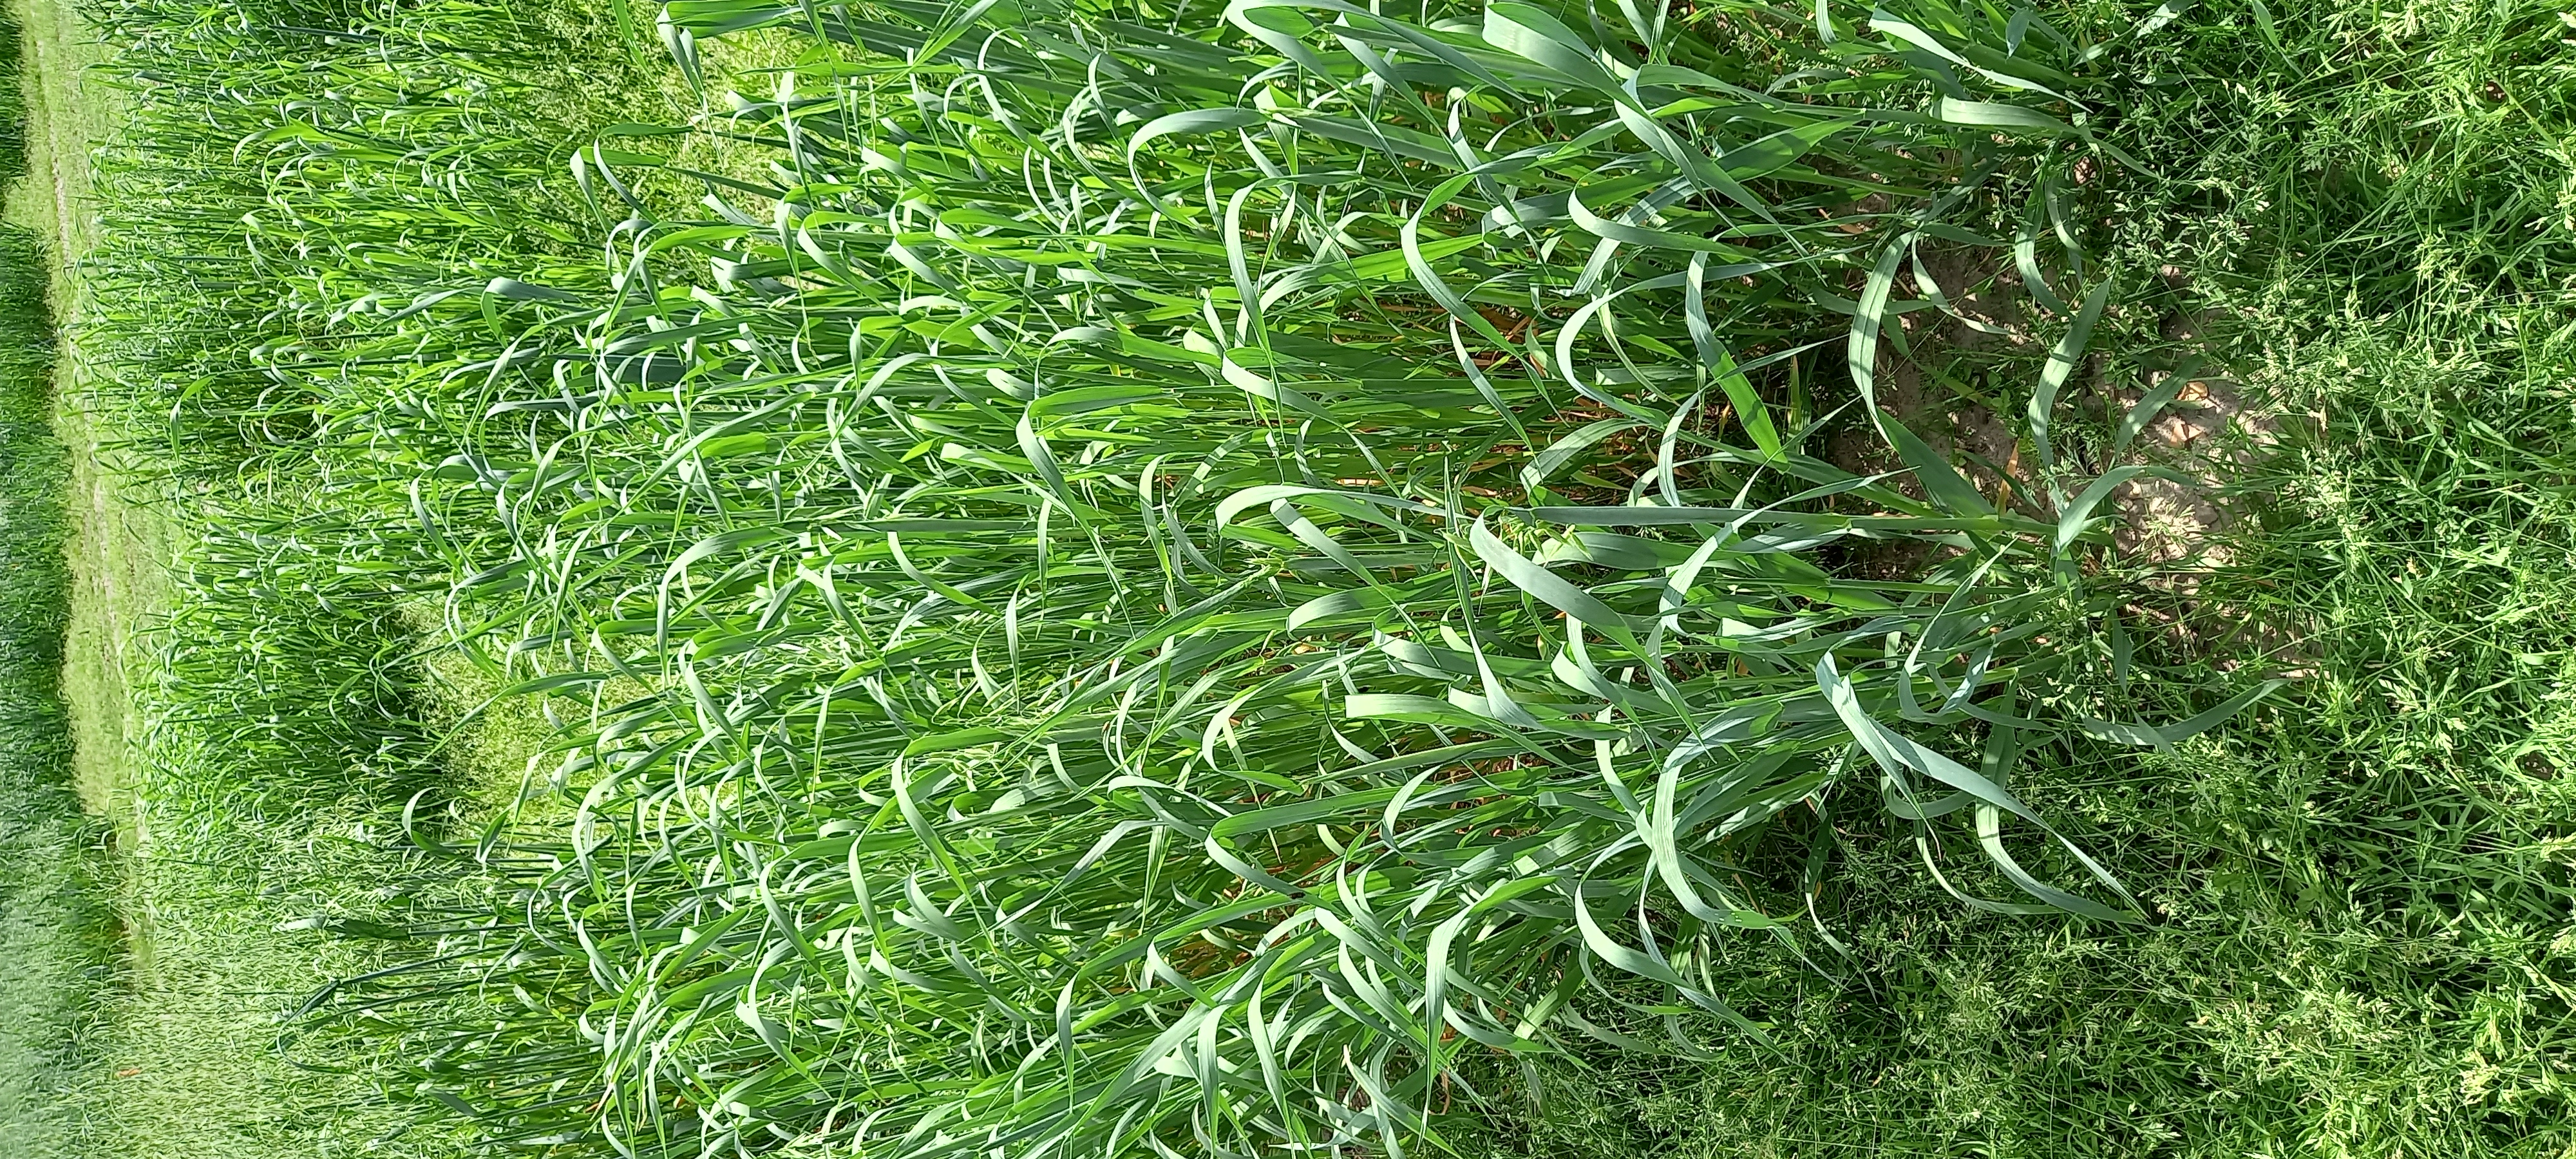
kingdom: Plantae
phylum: Tracheophyta
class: Liliopsida
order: Poales
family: Poaceae
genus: Avena
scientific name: Avena sativa
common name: Oat
